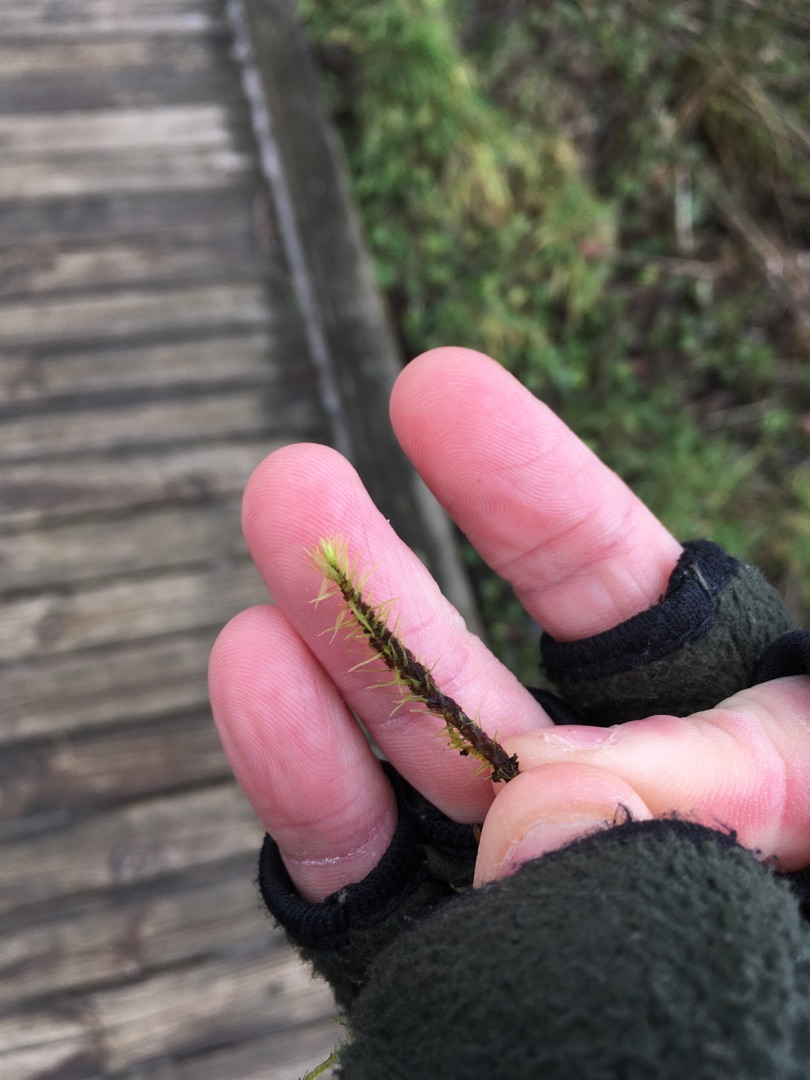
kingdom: Plantae
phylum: Bryophyta
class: Bryopsida
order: Aulacomniales
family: Aulacomniaceae
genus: Aulacomnium
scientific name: Aulacomnium palustre
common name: Almindelig filtmos
